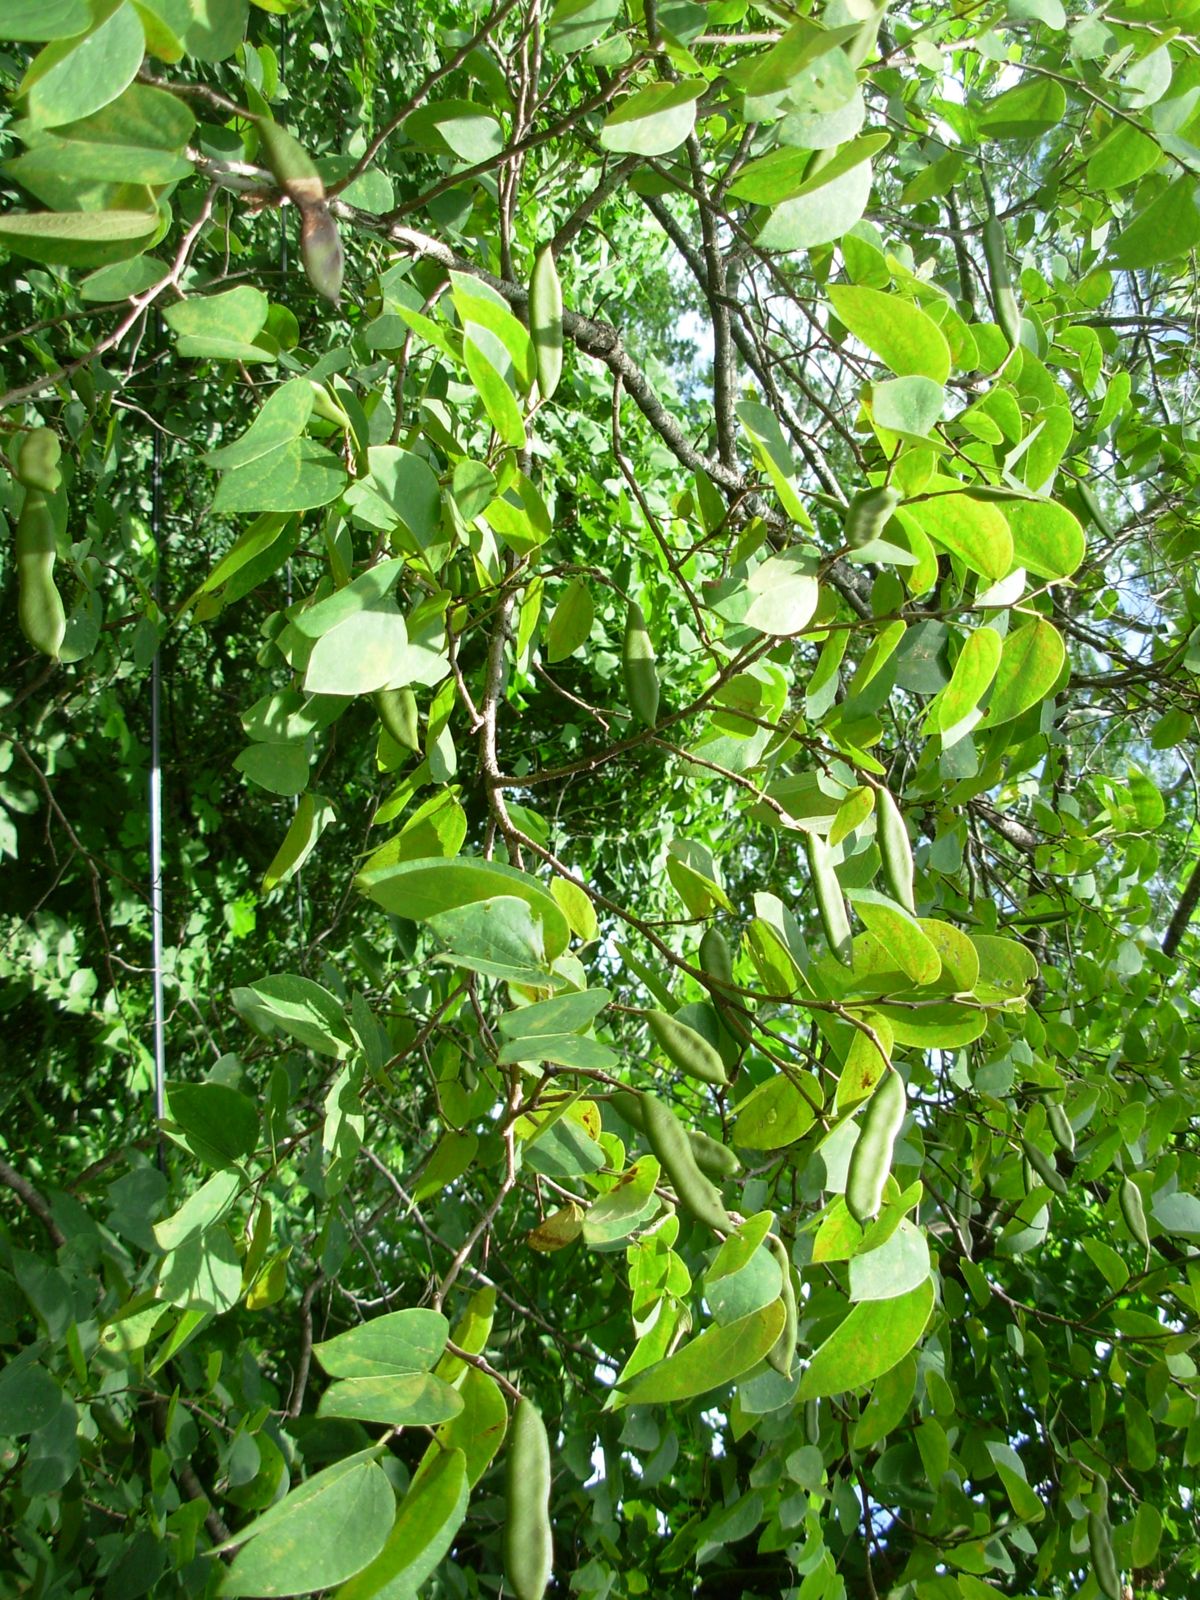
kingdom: Plantae
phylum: Tracheophyta
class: Magnoliopsida
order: Fabales
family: Fabaceae
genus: Bauhinia
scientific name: Bauhinia aculeata
